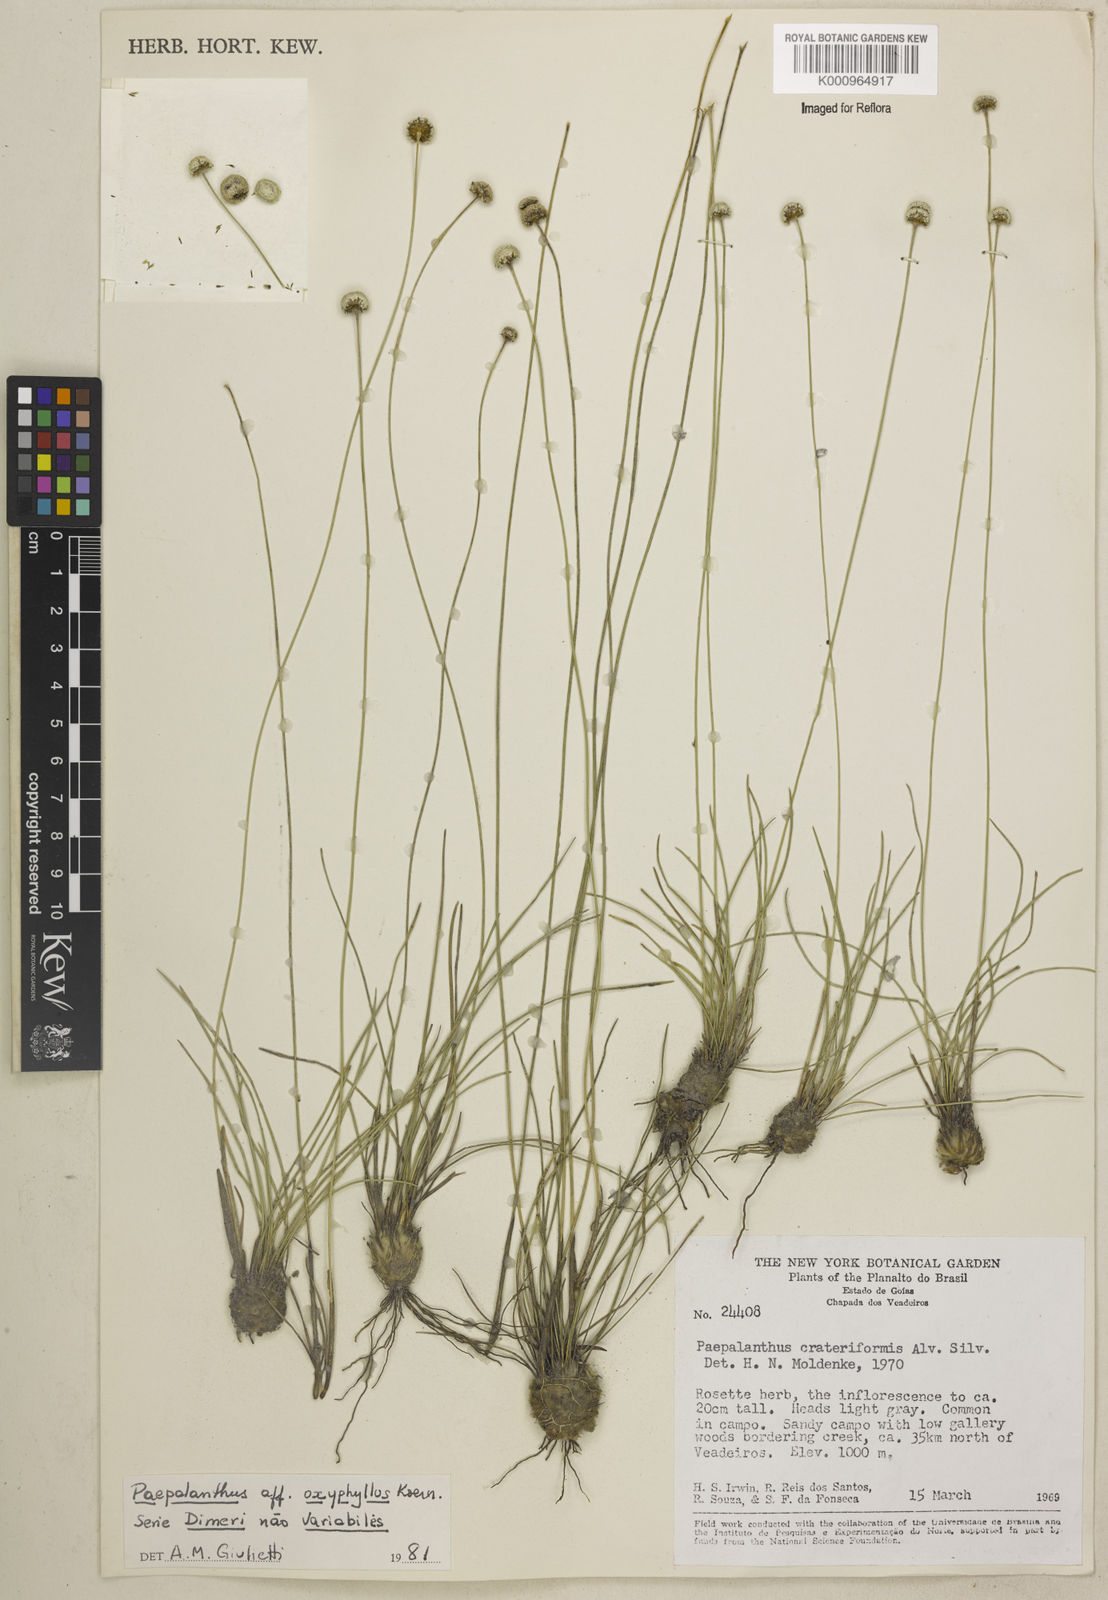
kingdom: Plantae
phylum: Tracheophyta
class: Liliopsida
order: Poales
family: Eriocaulaceae
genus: Paepalanthus
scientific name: Paepalanthus
